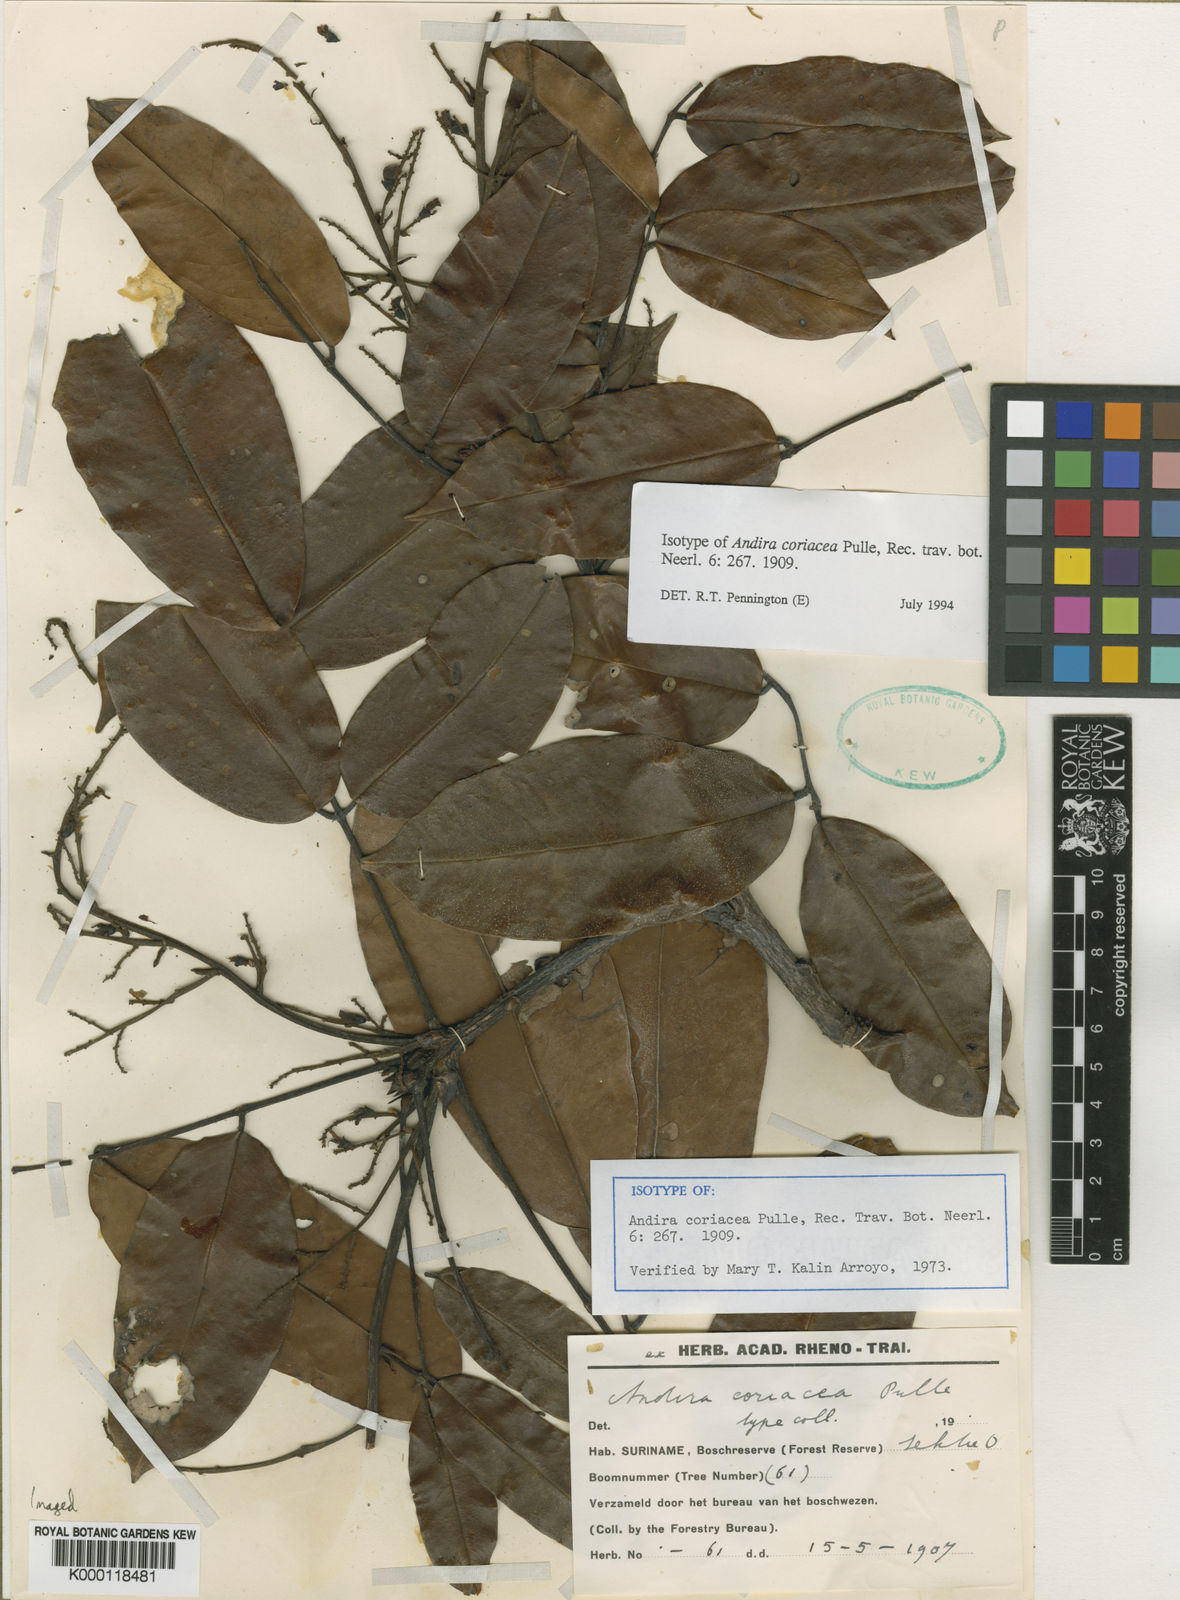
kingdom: Plantae
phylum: Tracheophyta
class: Magnoliopsida
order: Fabales
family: Fabaceae
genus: Andira
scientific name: Andira coriacea
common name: St. martin rouge
